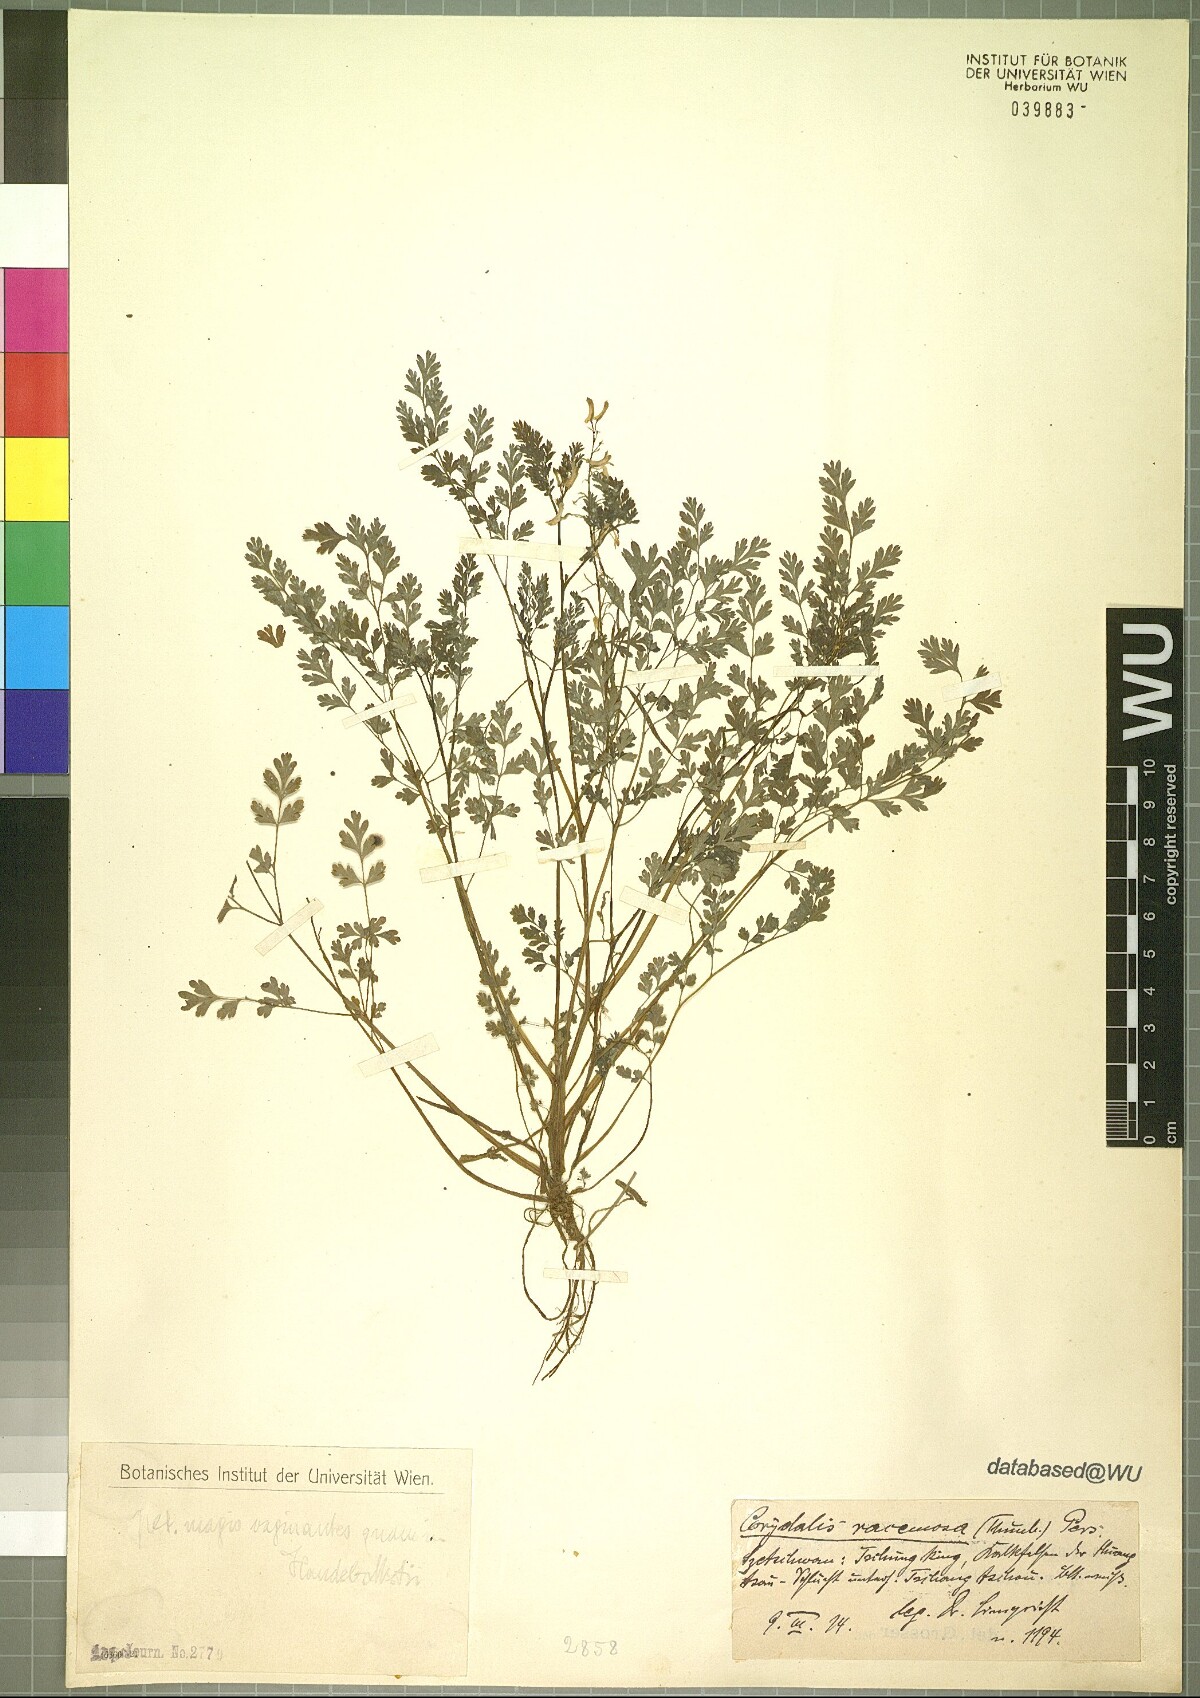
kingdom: Plantae
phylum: Tracheophyta
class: Magnoliopsida
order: Ranunculales
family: Papaveraceae
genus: Corydalis
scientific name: Corydalis racemosa
